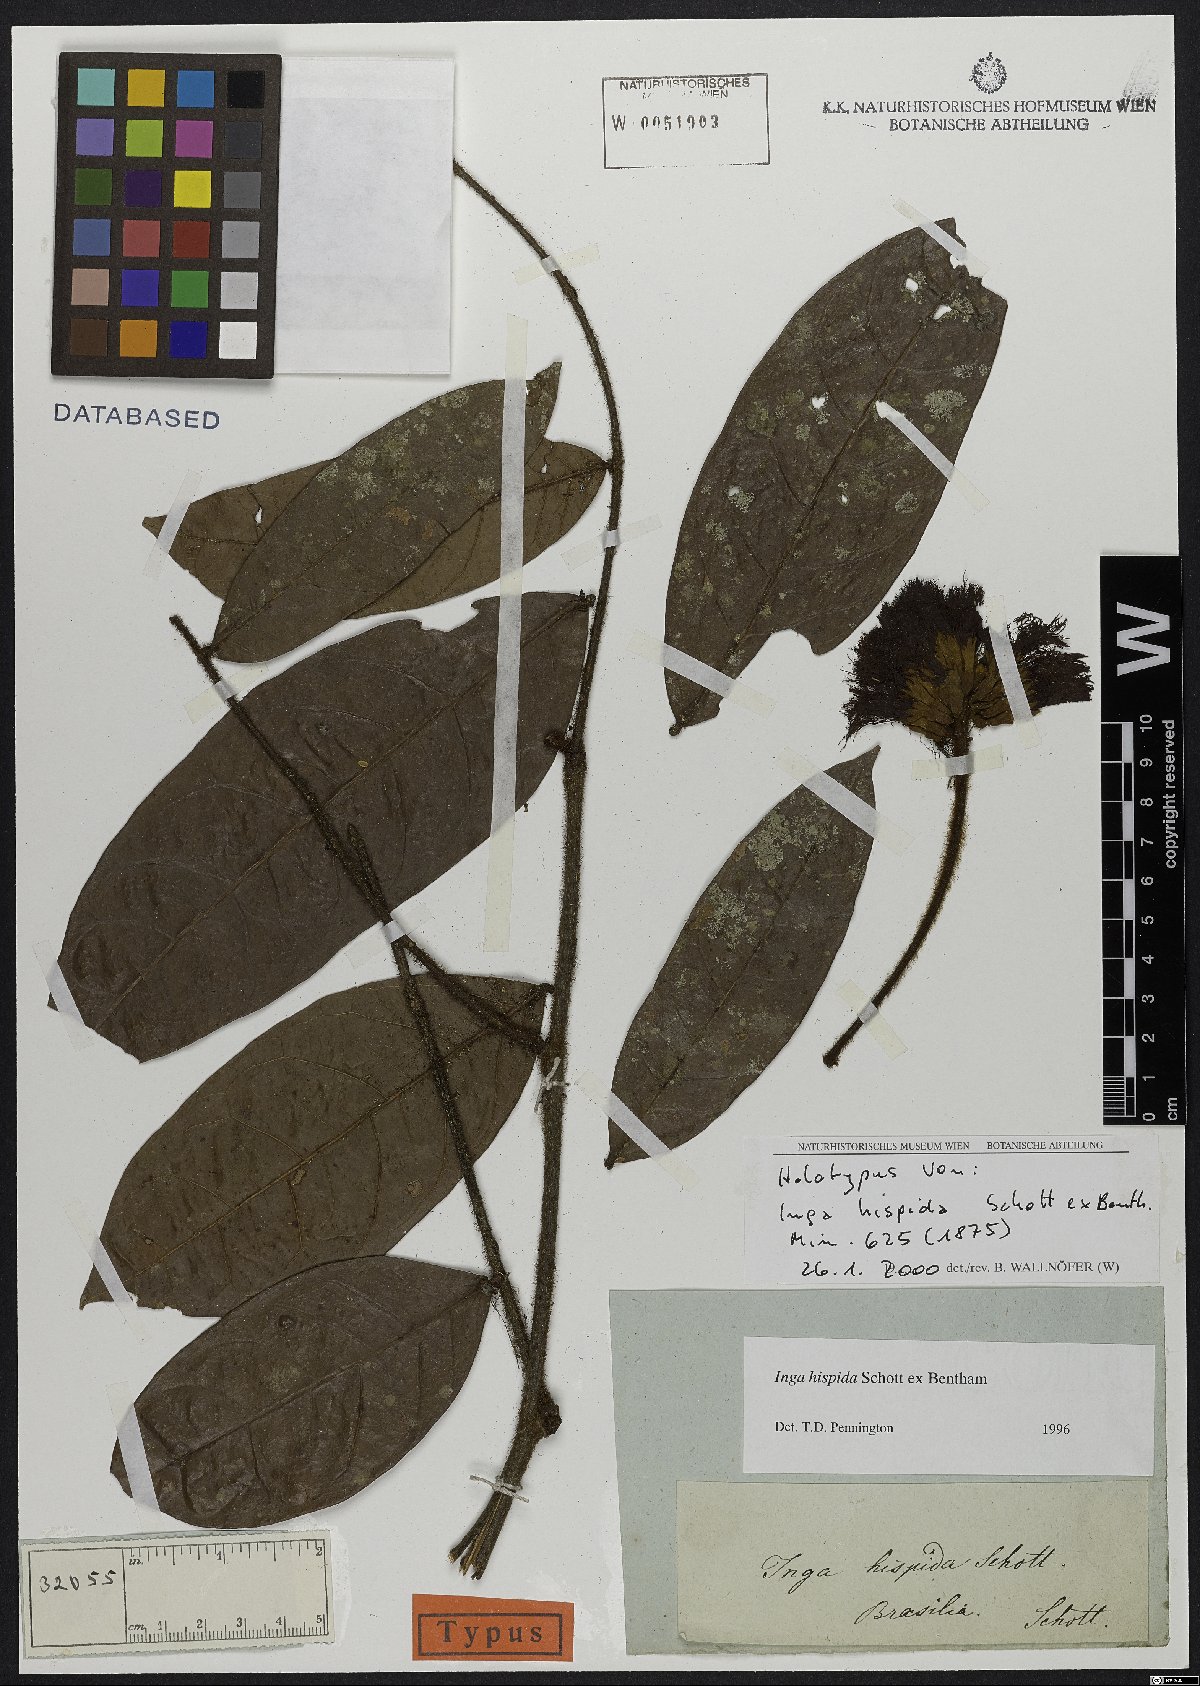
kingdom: Plantae
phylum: Tracheophyta
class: Magnoliopsida
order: Fabales
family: Fabaceae
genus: Inga
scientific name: Inga hispida
